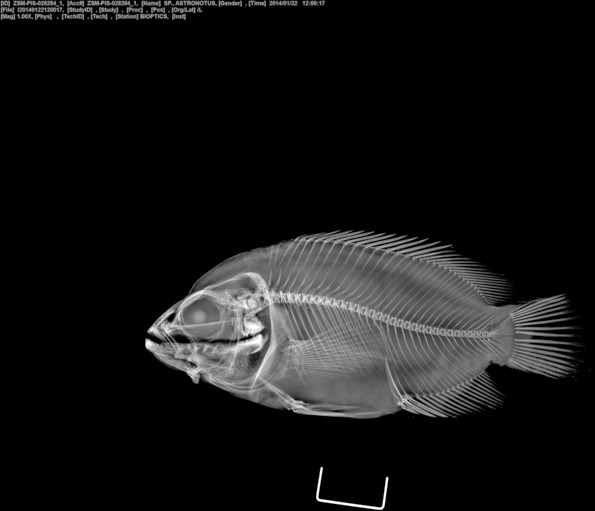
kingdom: Animalia
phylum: Chordata
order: Perciformes
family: Cichlidae
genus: Astronotus
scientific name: Astronotus
